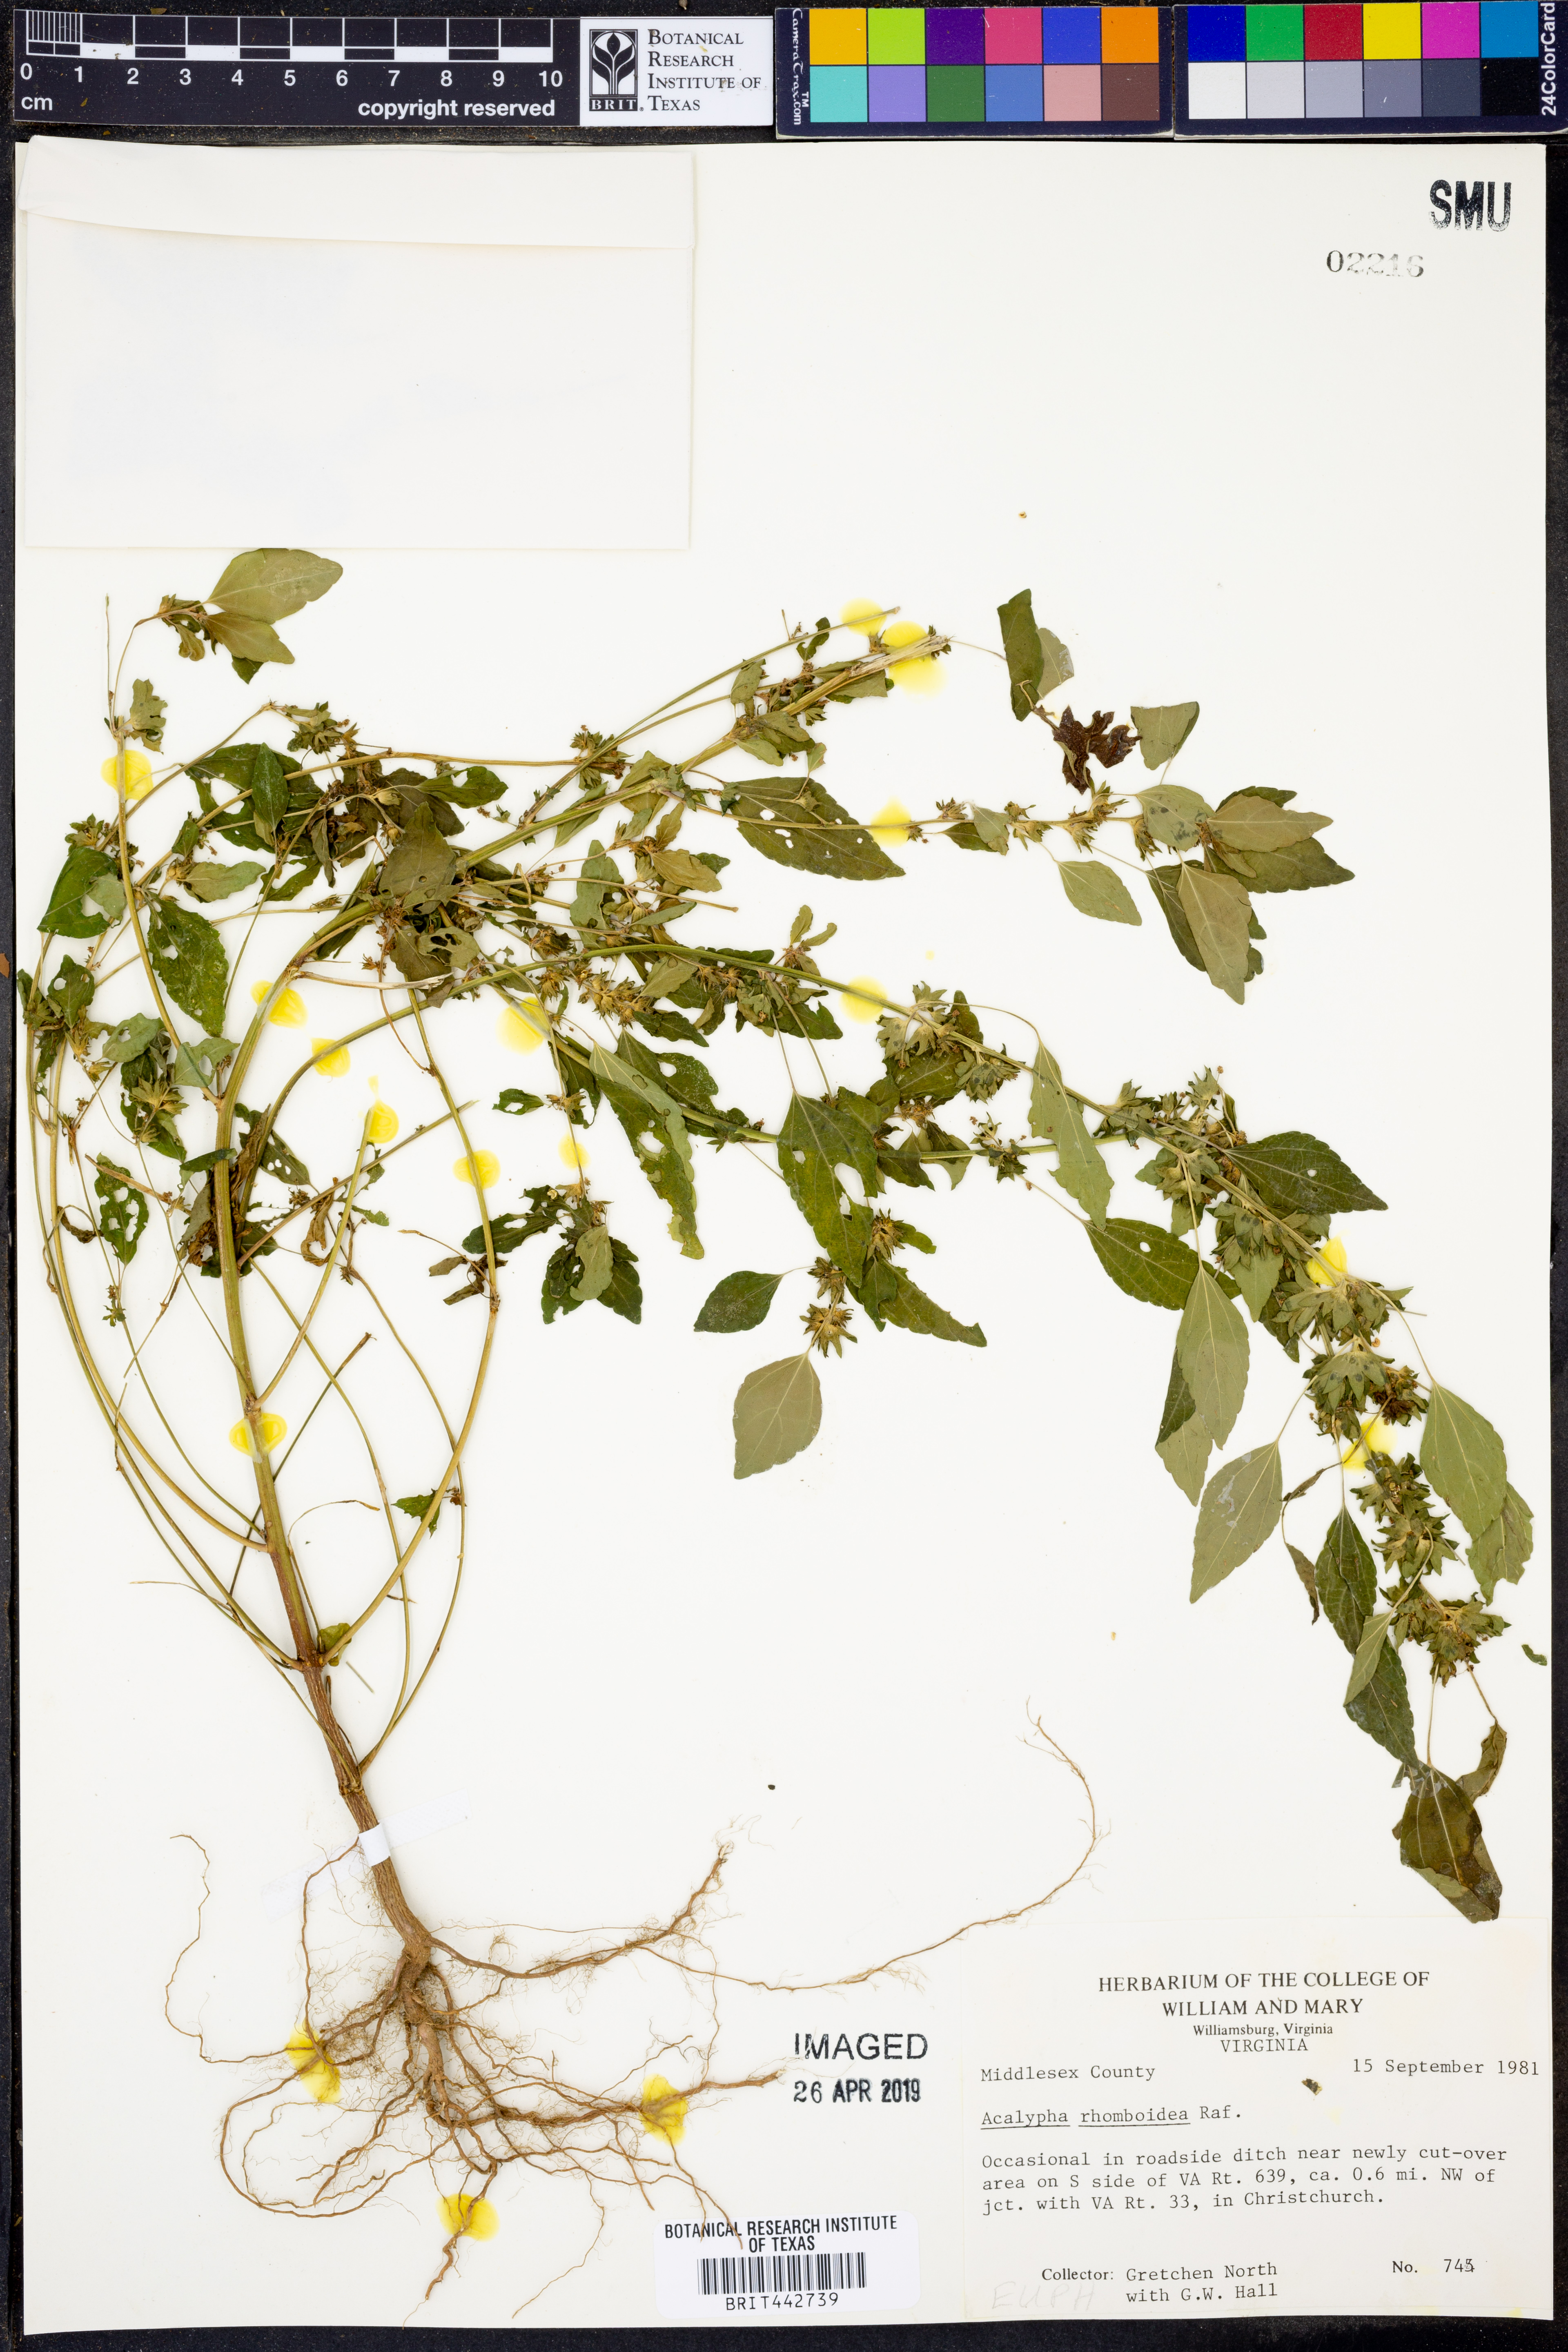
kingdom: Plantae
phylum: Tracheophyta
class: Magnoliopsida
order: Malpighiales
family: Euphorbiaceae
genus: Acalypha
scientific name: Acalypha rhomboidea
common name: Rhombic copperleaf
